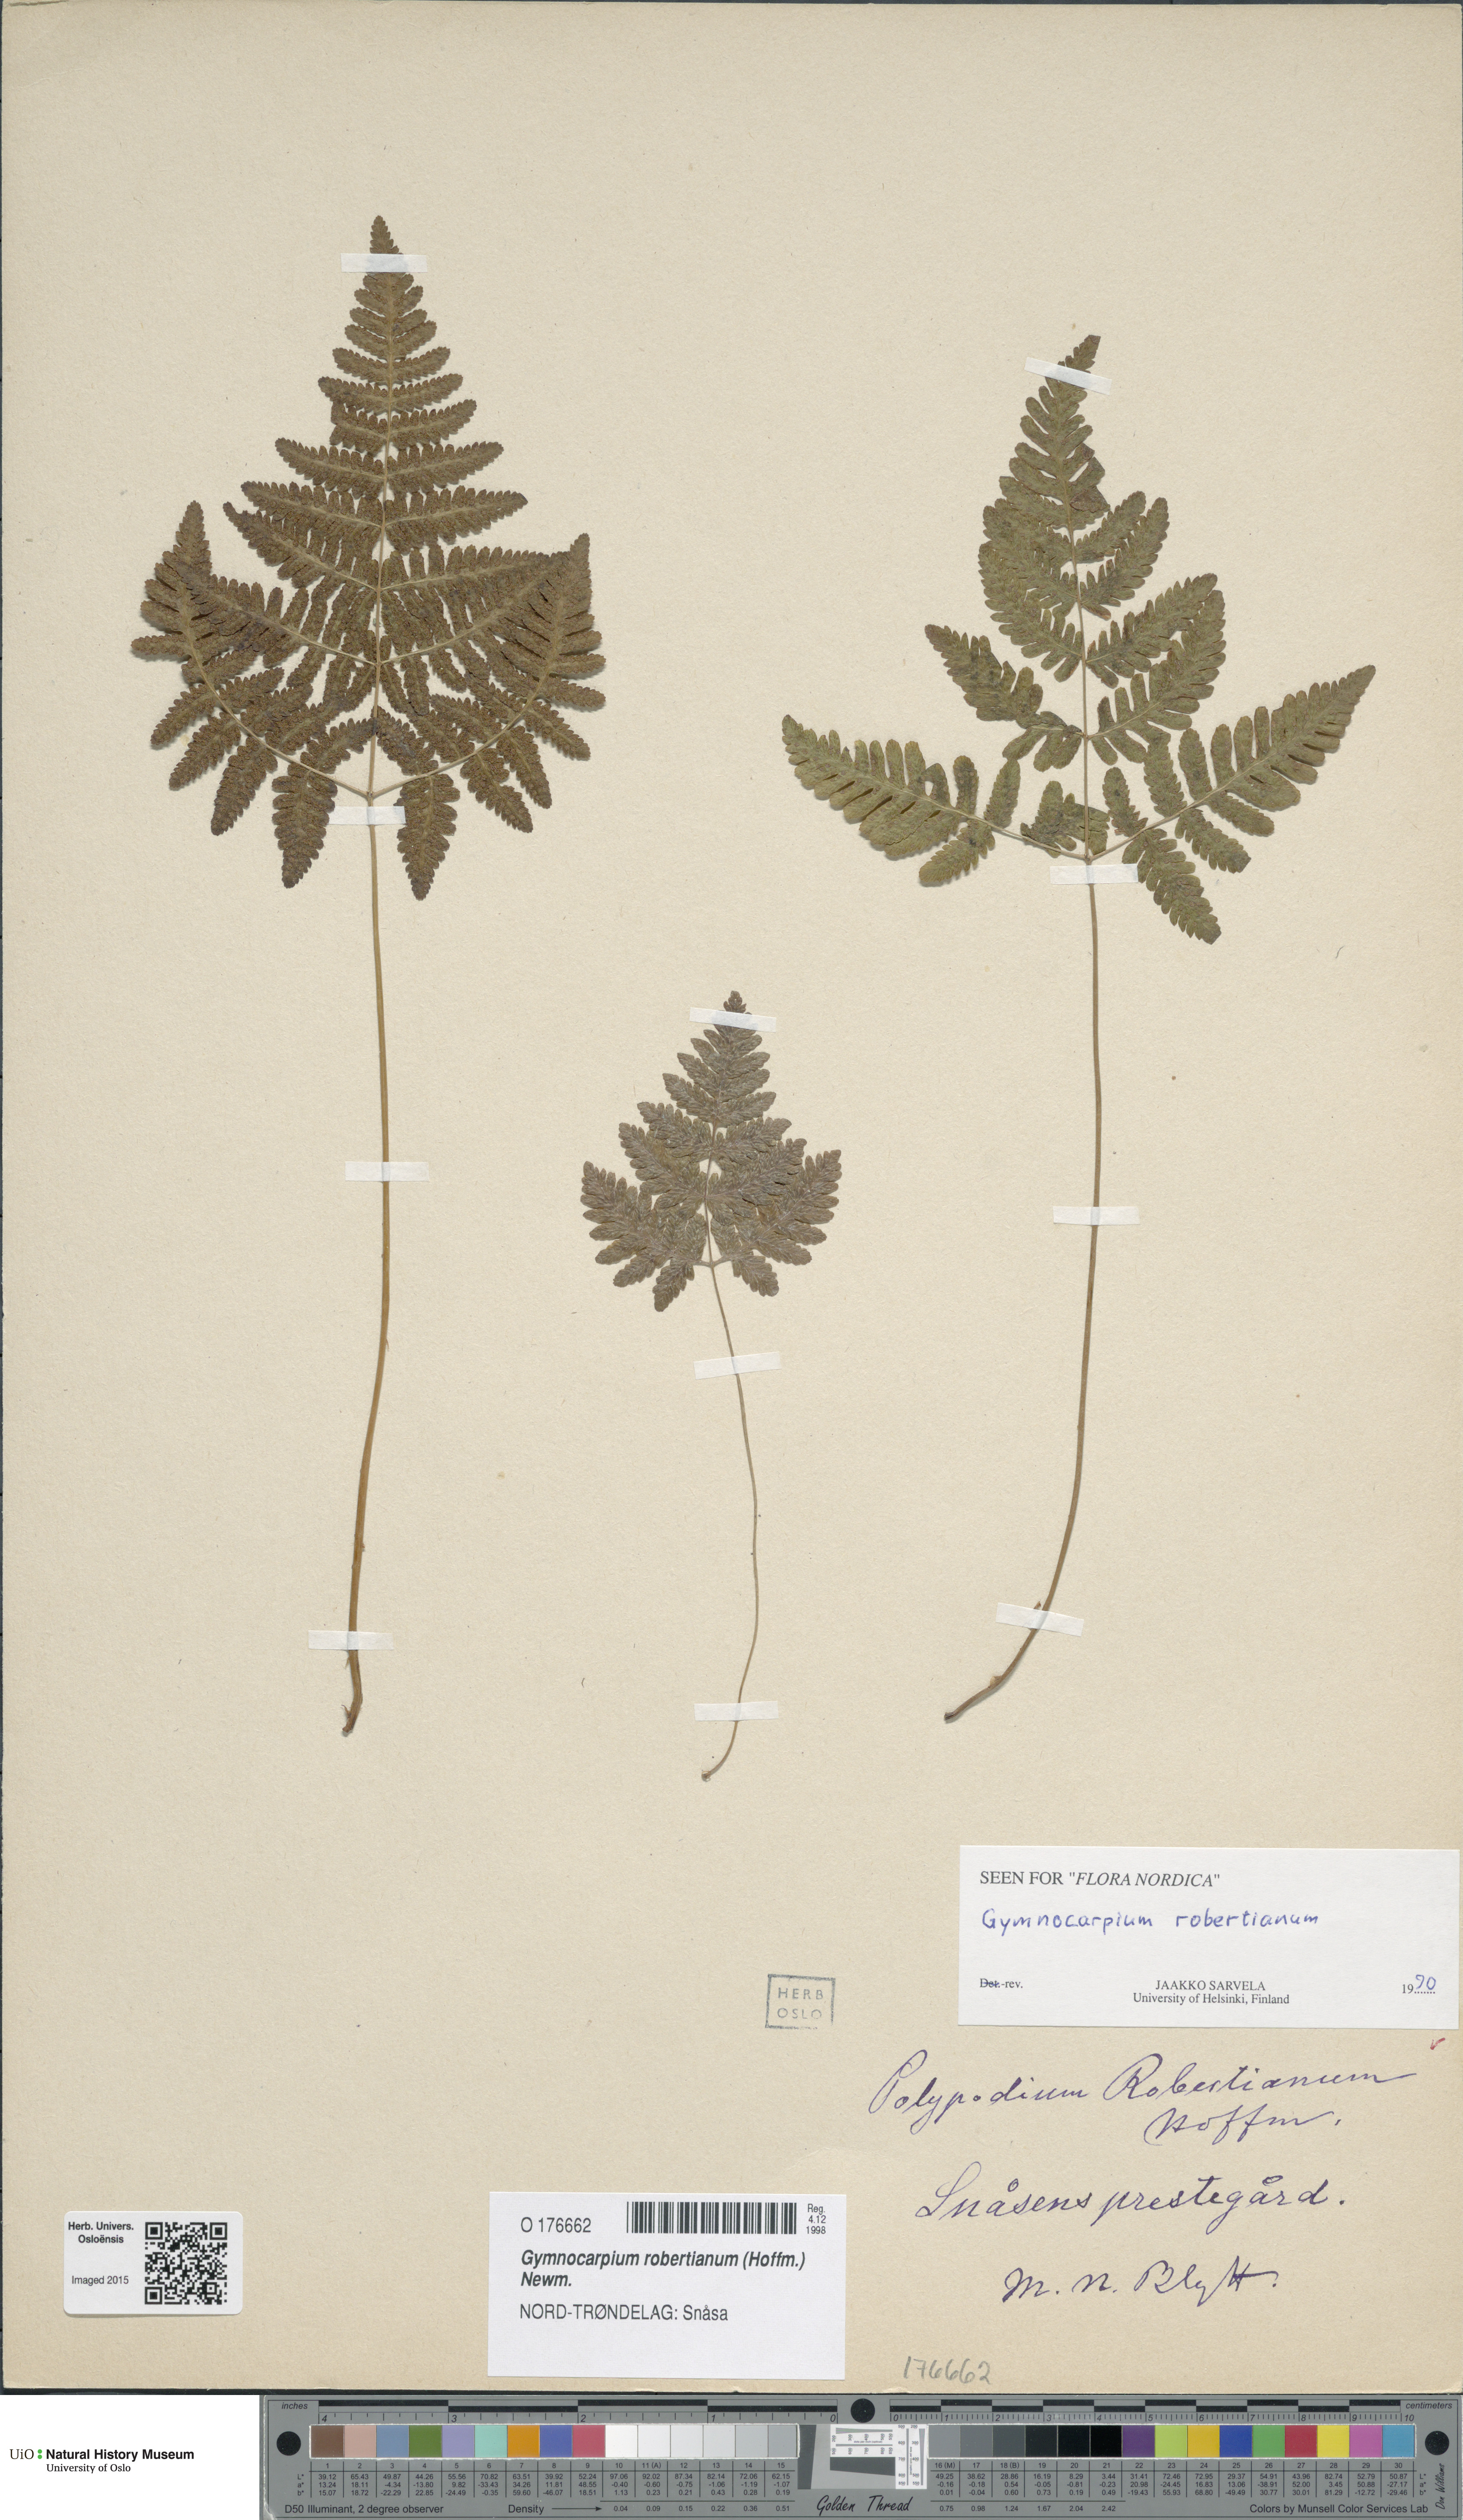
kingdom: Plantae
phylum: Tracheophyta
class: Polypodiopsida
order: Polypodiales
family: Cystopteridaceae
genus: Gymnocarpium
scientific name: Gymnocarpium robertianum
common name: Limestone fern
